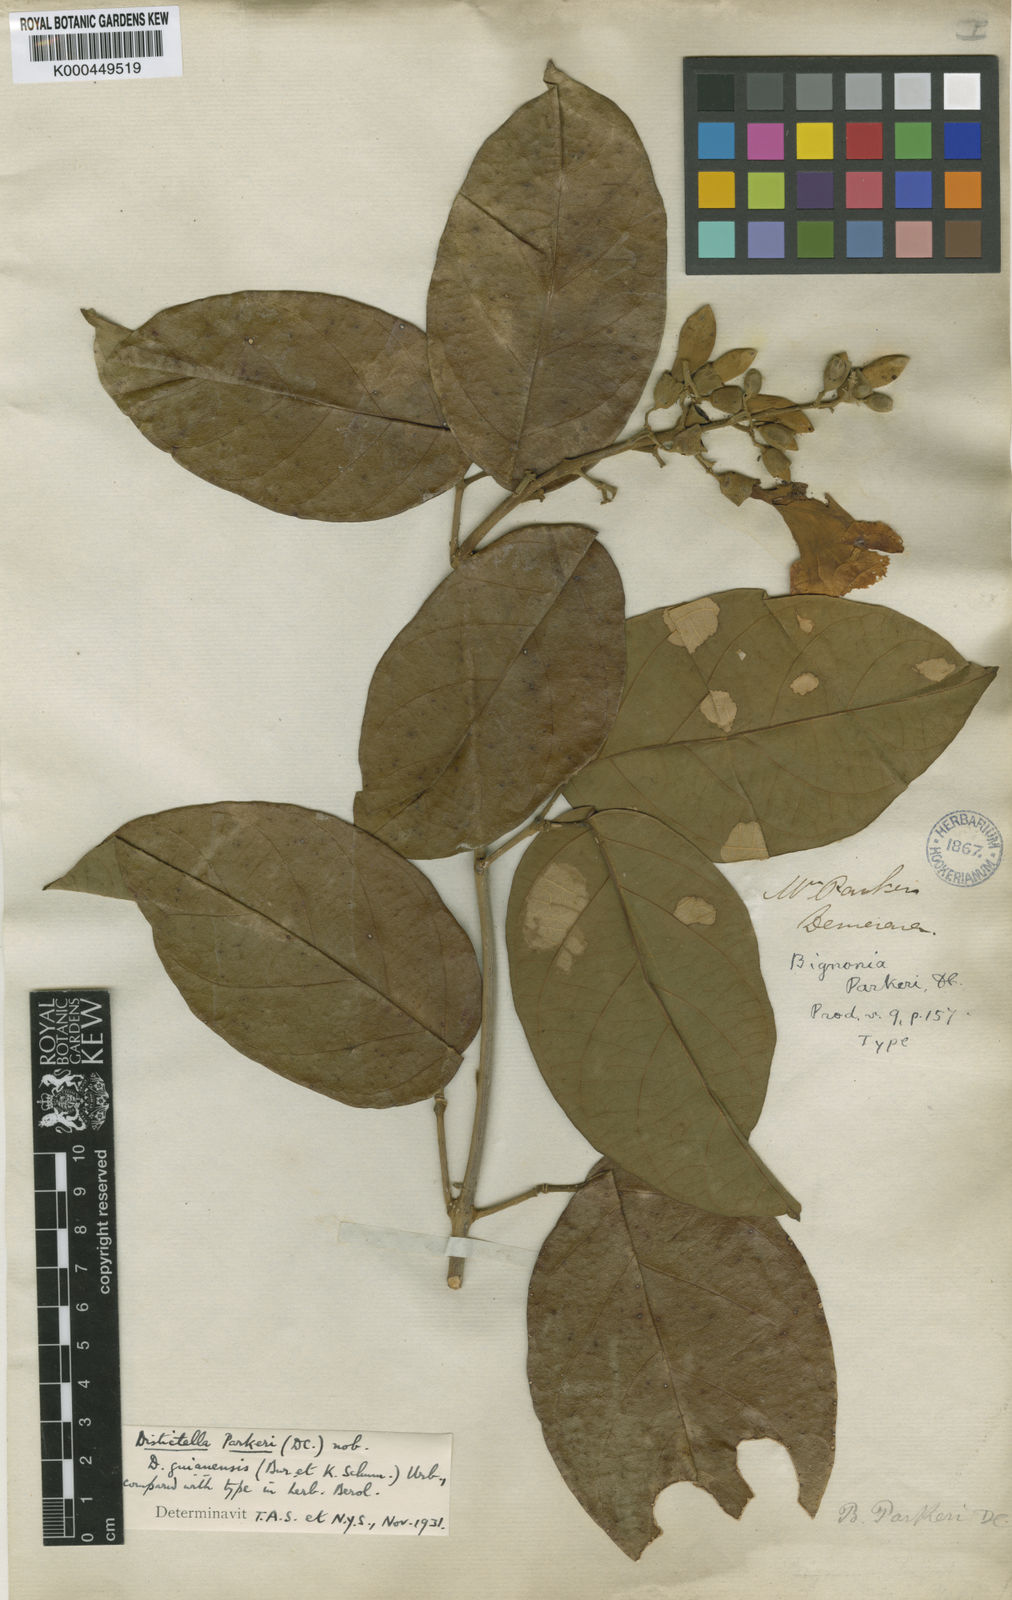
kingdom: Plantae
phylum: Tracheophyta
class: Magnoliopsida
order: Lamiales
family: Bignoniaceae
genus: Amphilophium
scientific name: Amphilophium parkeri
